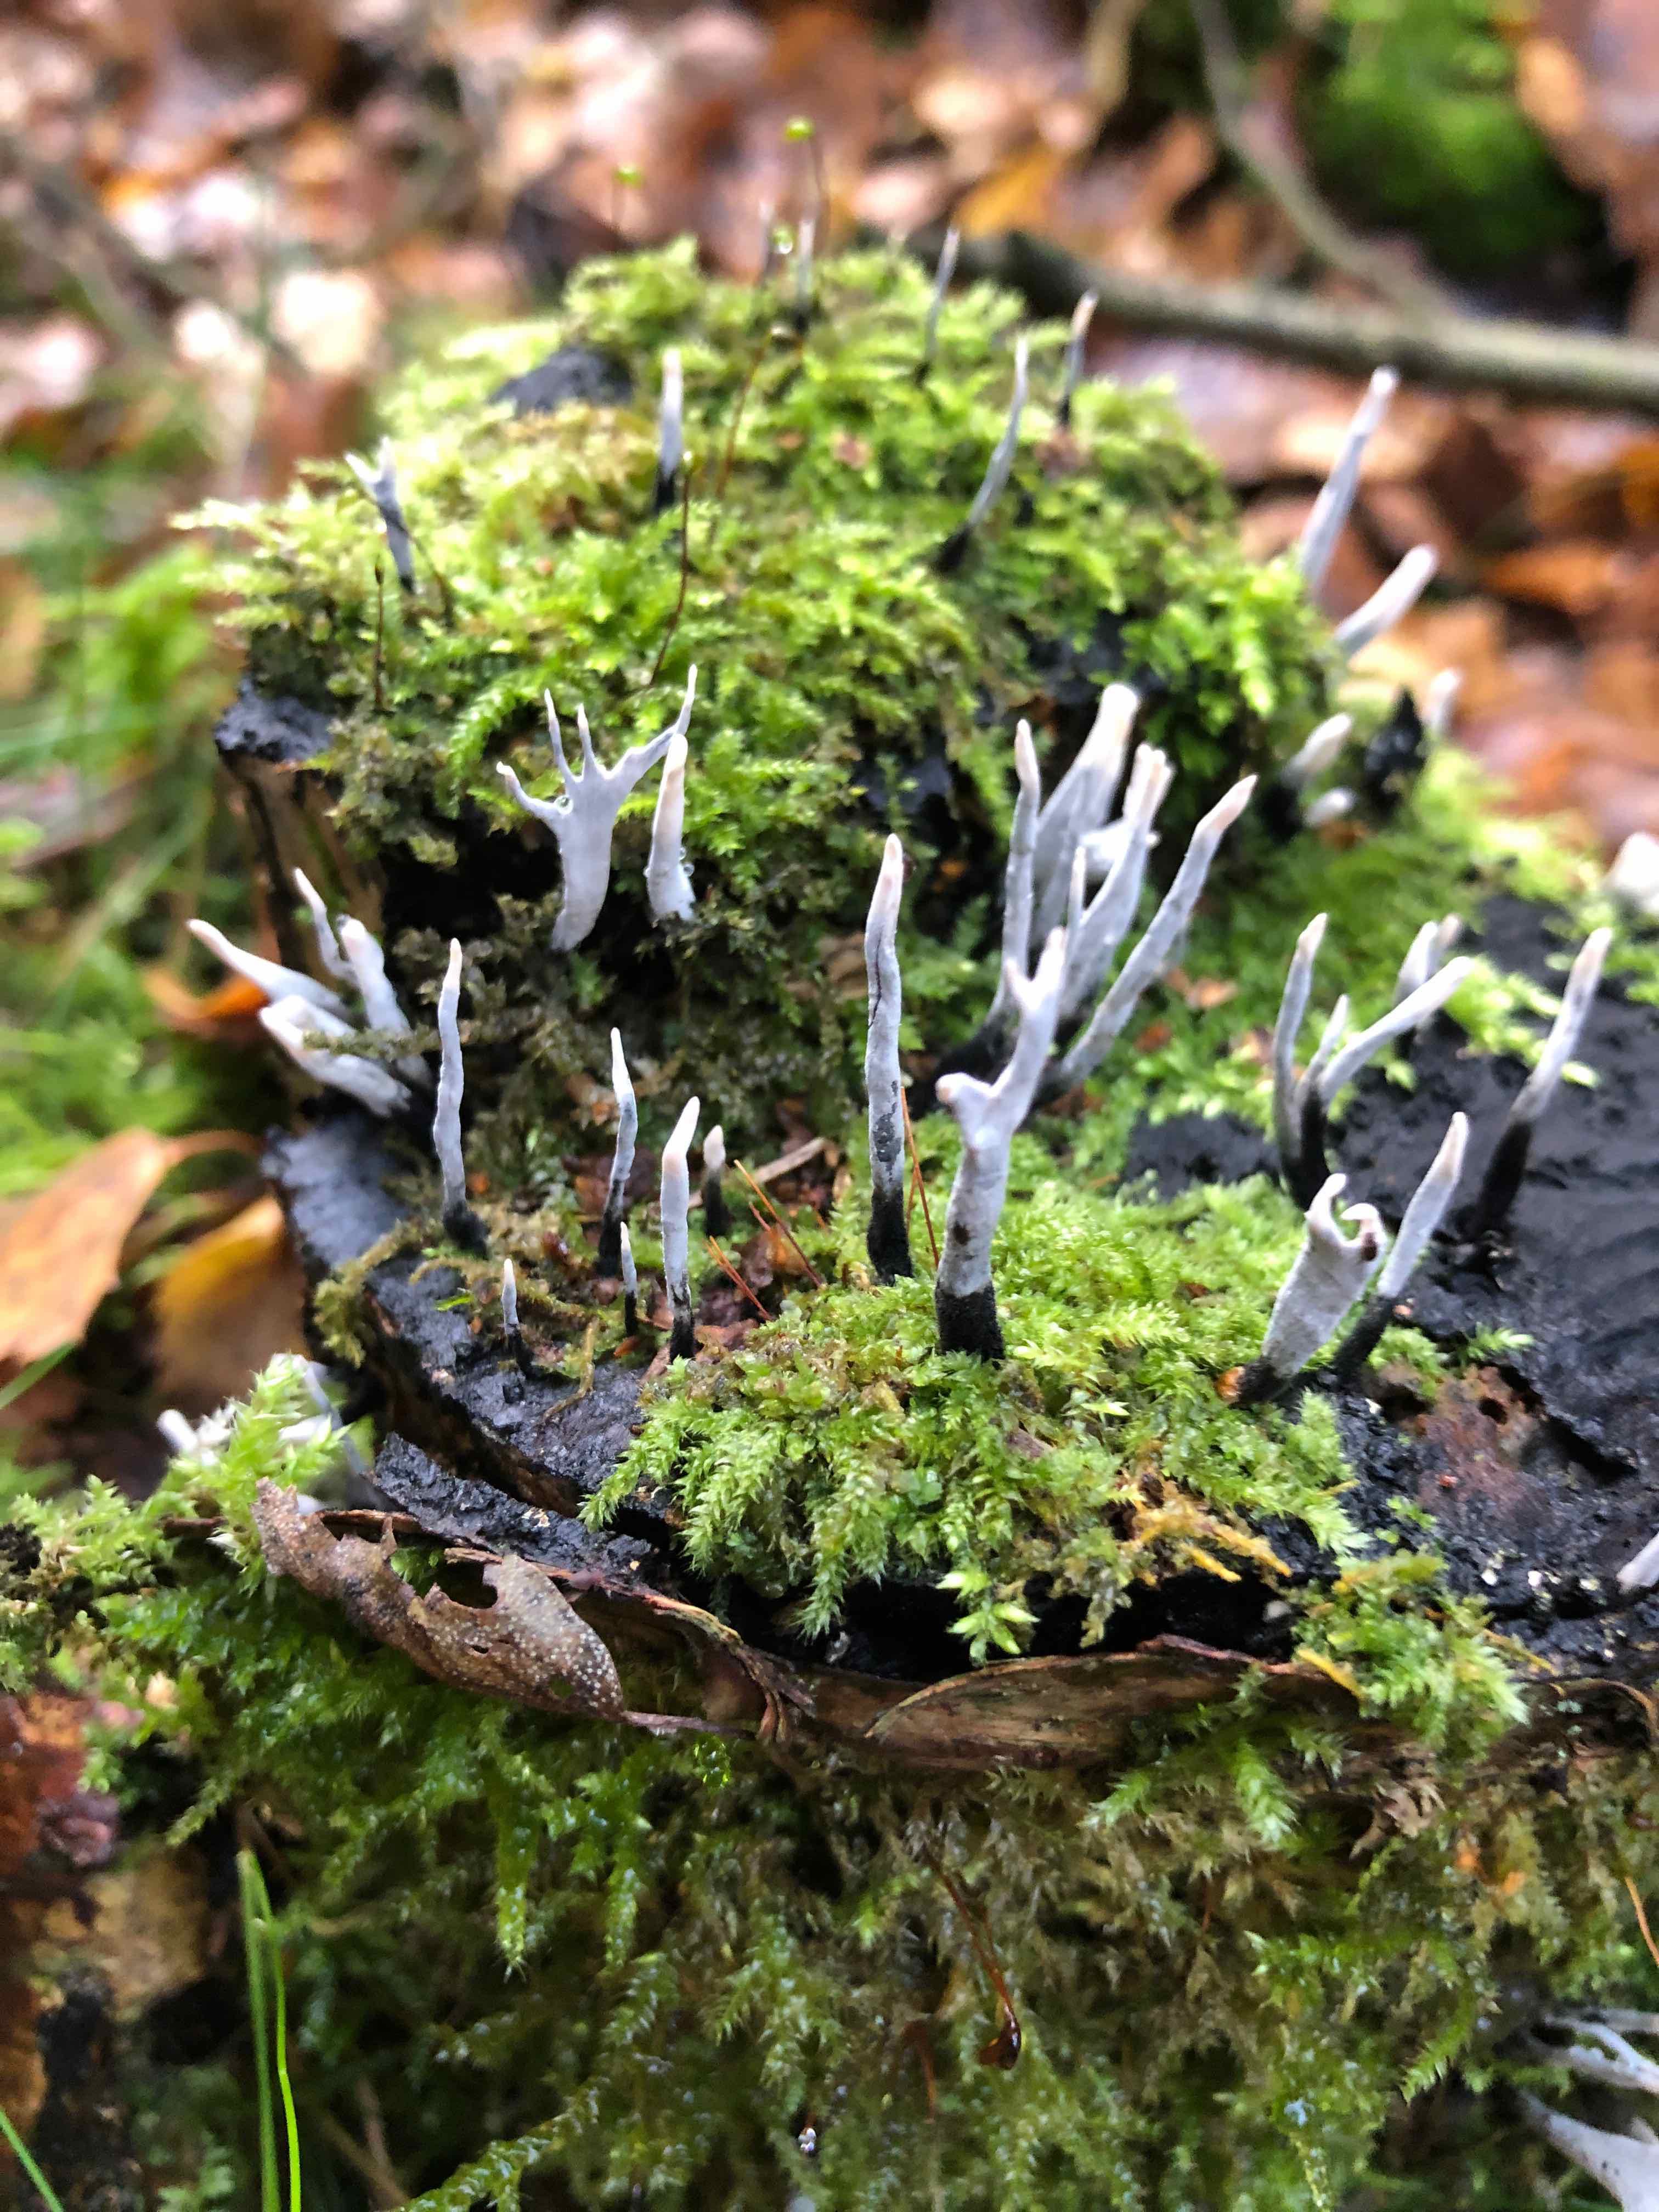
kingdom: Fungi
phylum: Ascomycota
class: Sordariomycetes
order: Xylariales
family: Xylariaceae
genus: Xylaria
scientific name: Xylaria hypoxylon
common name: grenet stødsvamp
